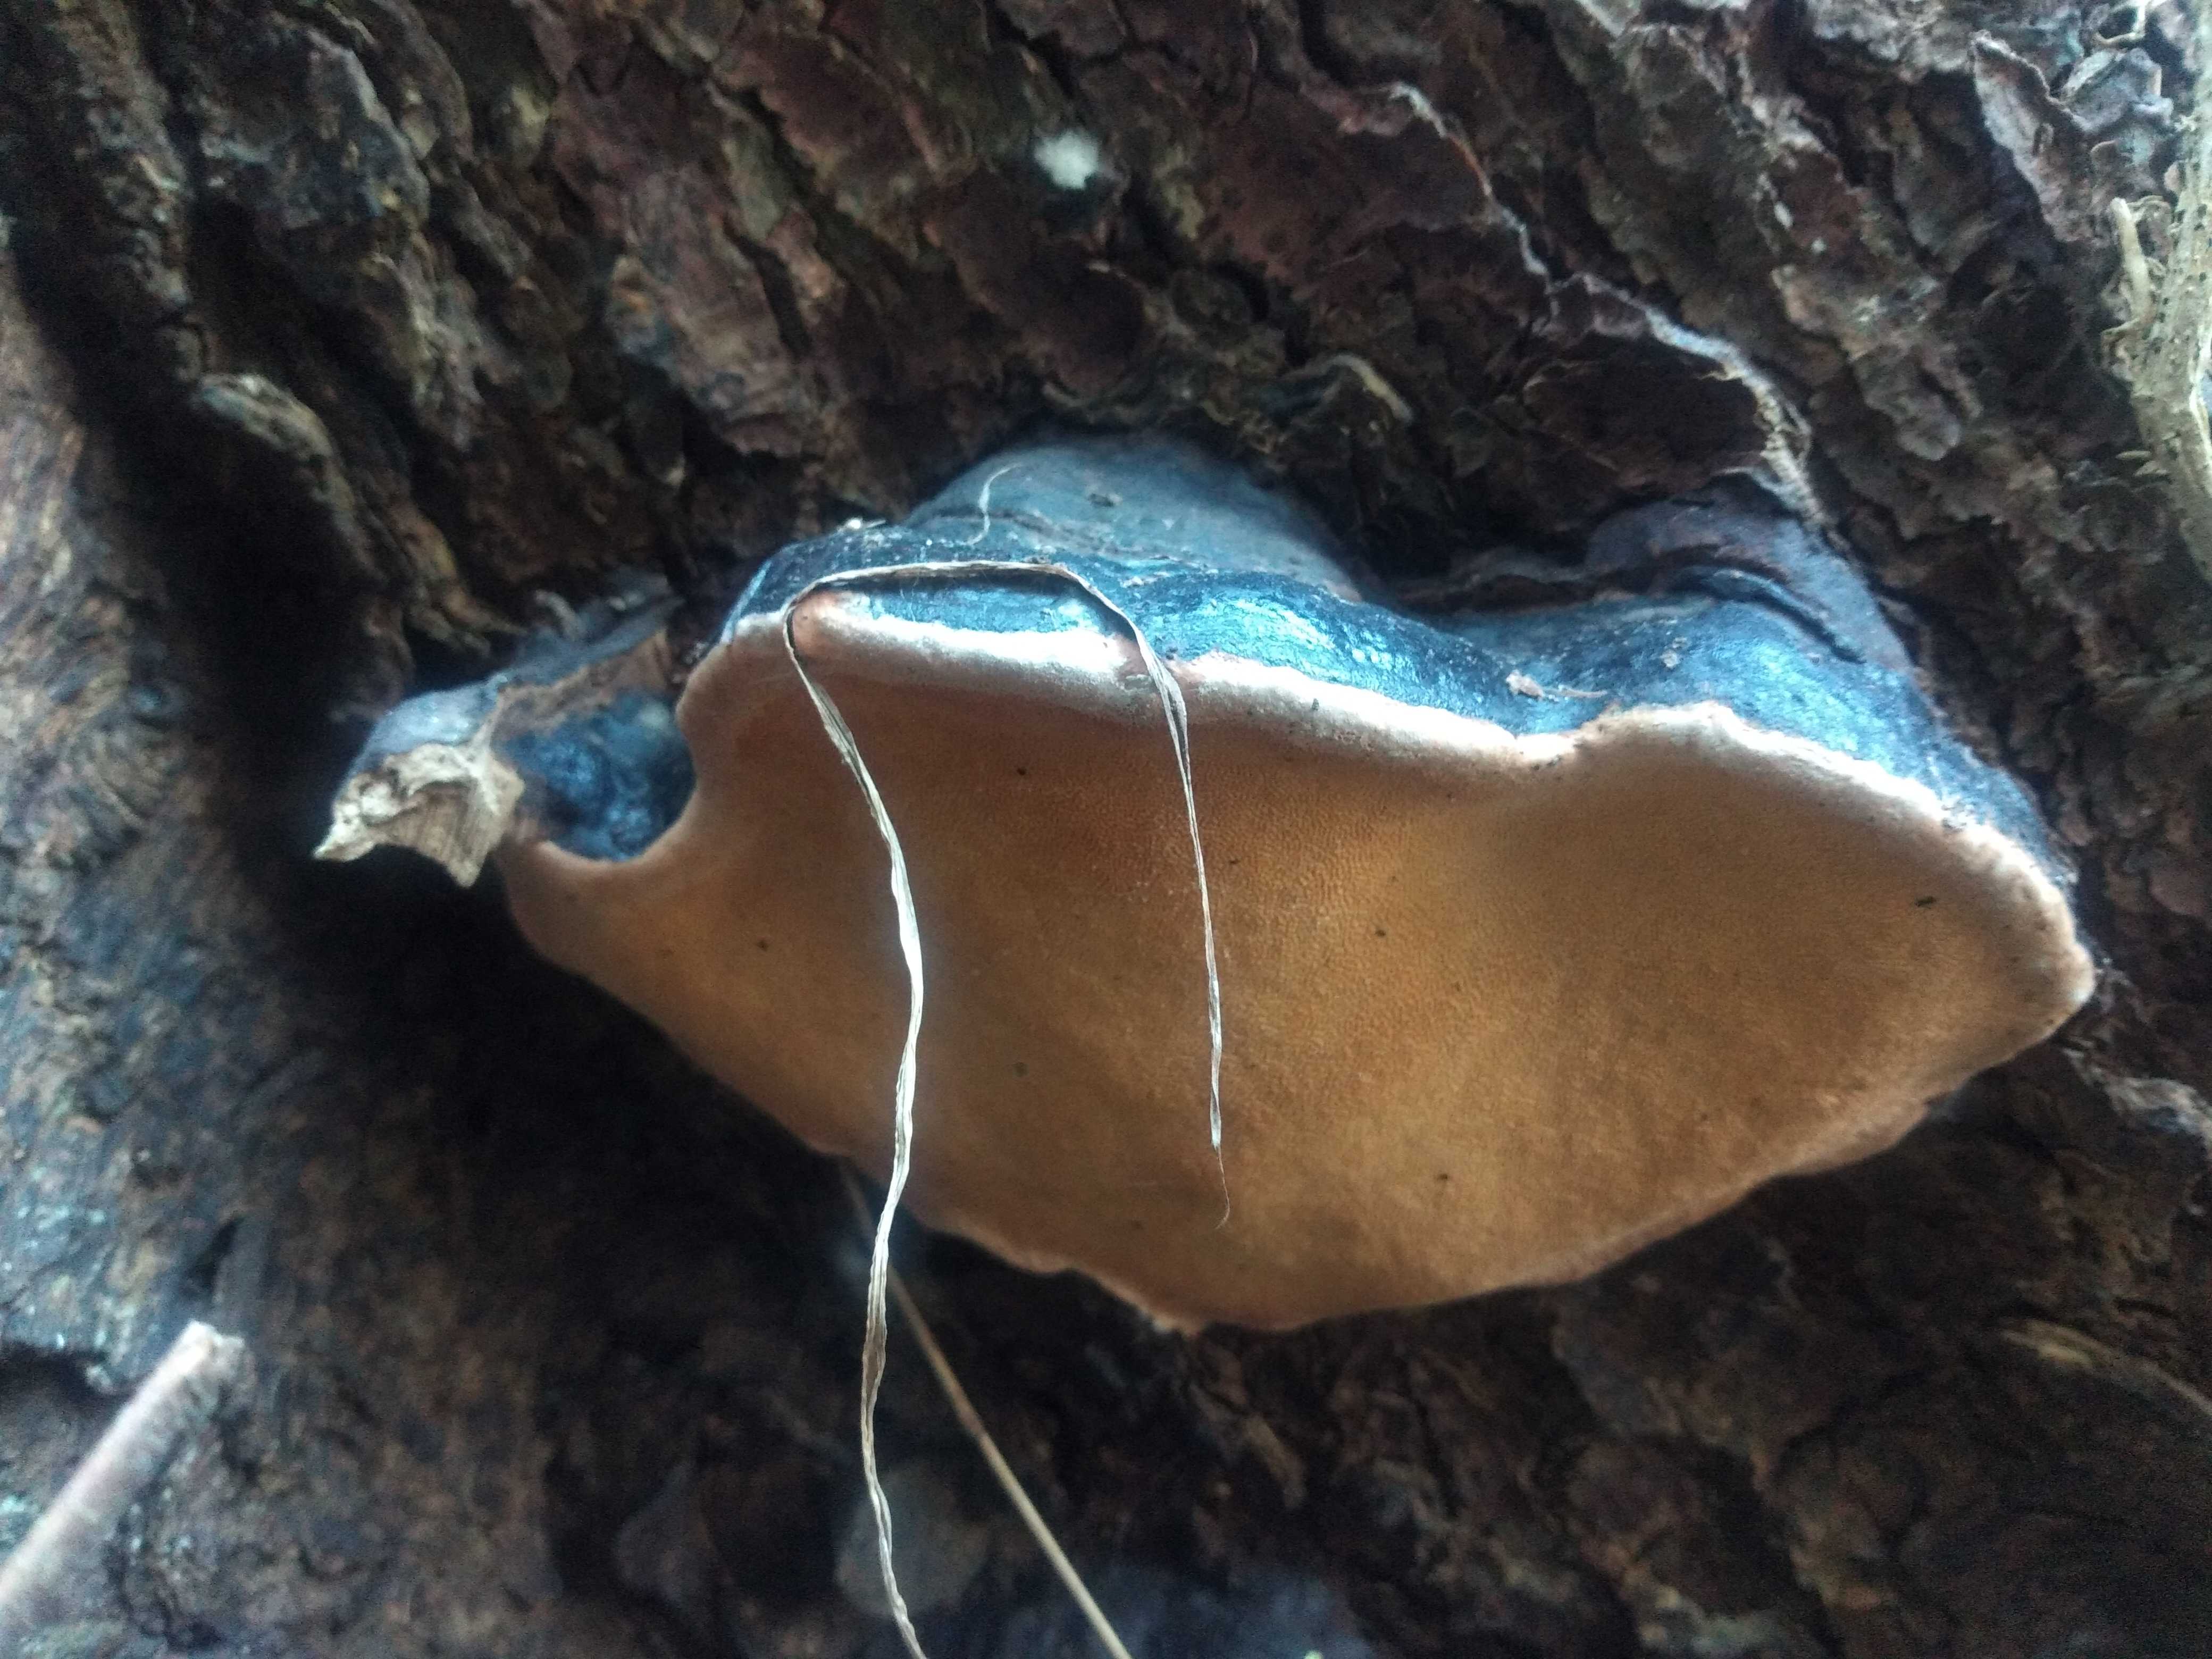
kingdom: Fungi
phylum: Basidiomycota
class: Agaricomycetes
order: Polyporales
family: Fomitopsidaceae
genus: Fomitopsis
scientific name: Fomitopsis pinicola
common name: randbæltet hovporesvamp
